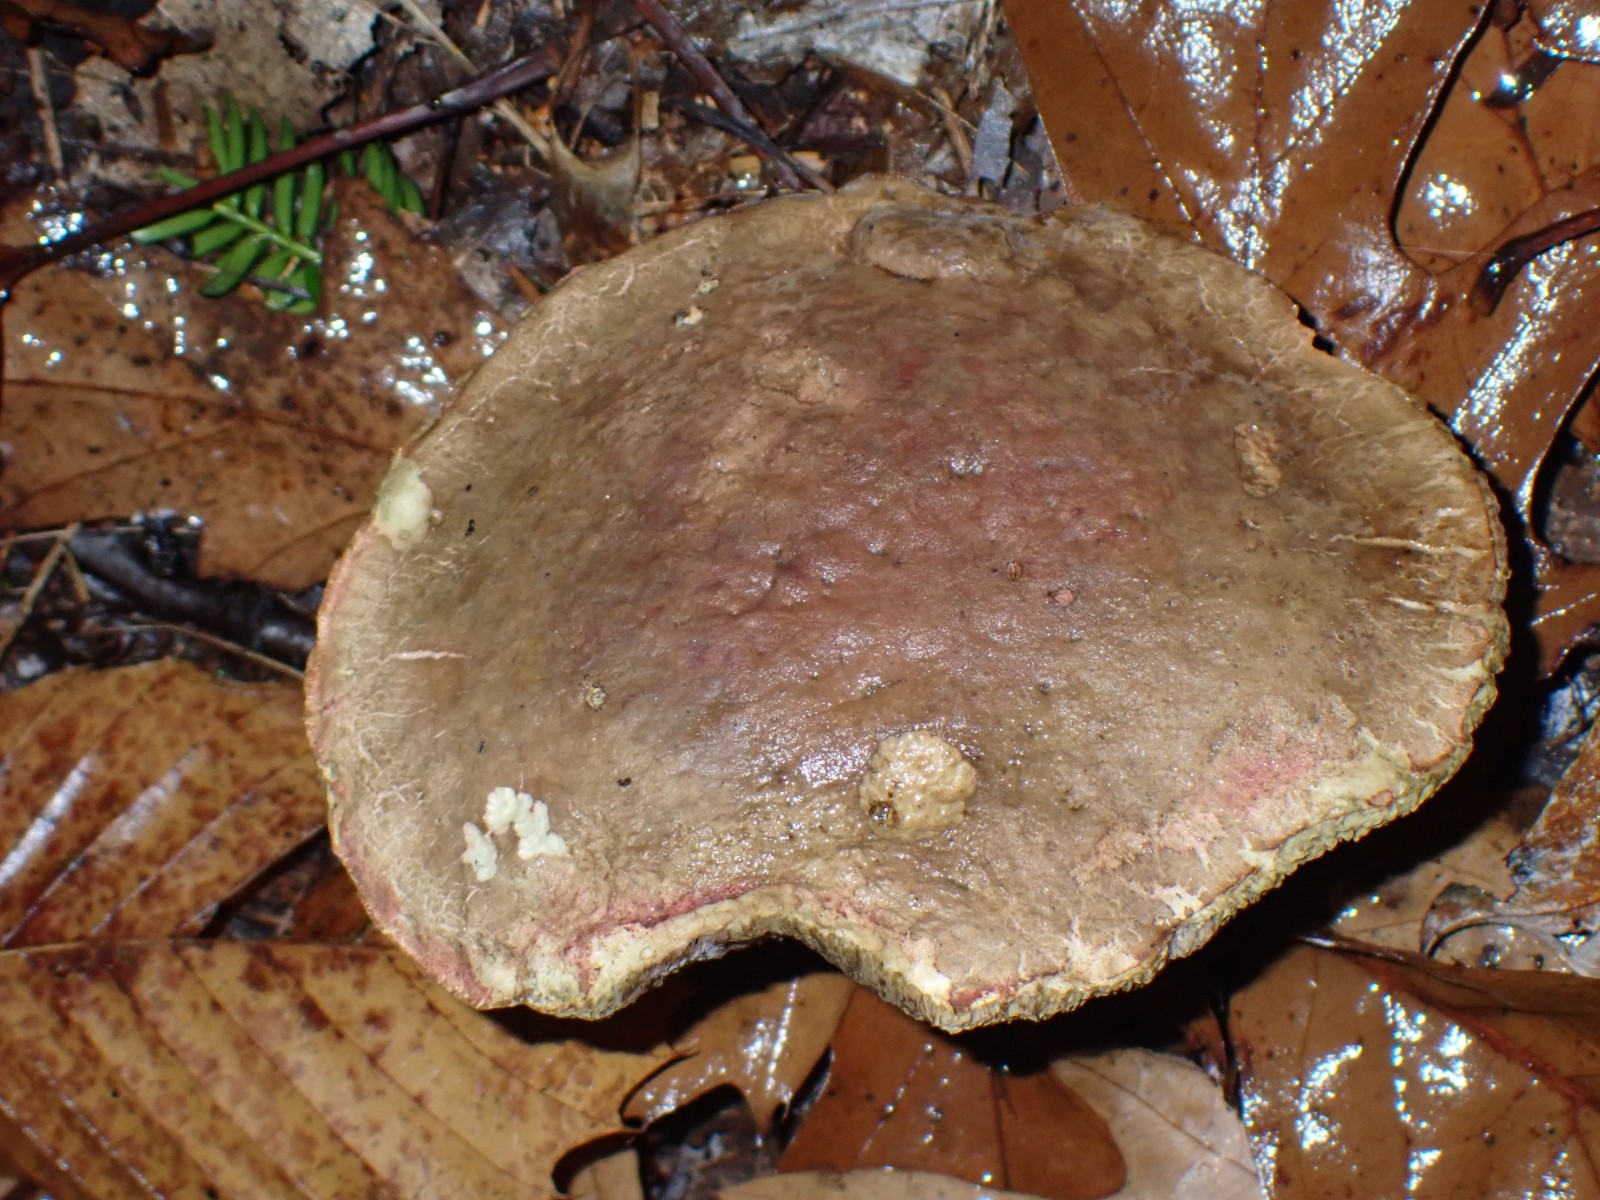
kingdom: Fungi
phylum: Basidiomycota
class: Agaricomycetes
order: Boletales
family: Boletaceae
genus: Xerocomellus
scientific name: Xerocomellus pruinatus
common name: dugget rørhat
